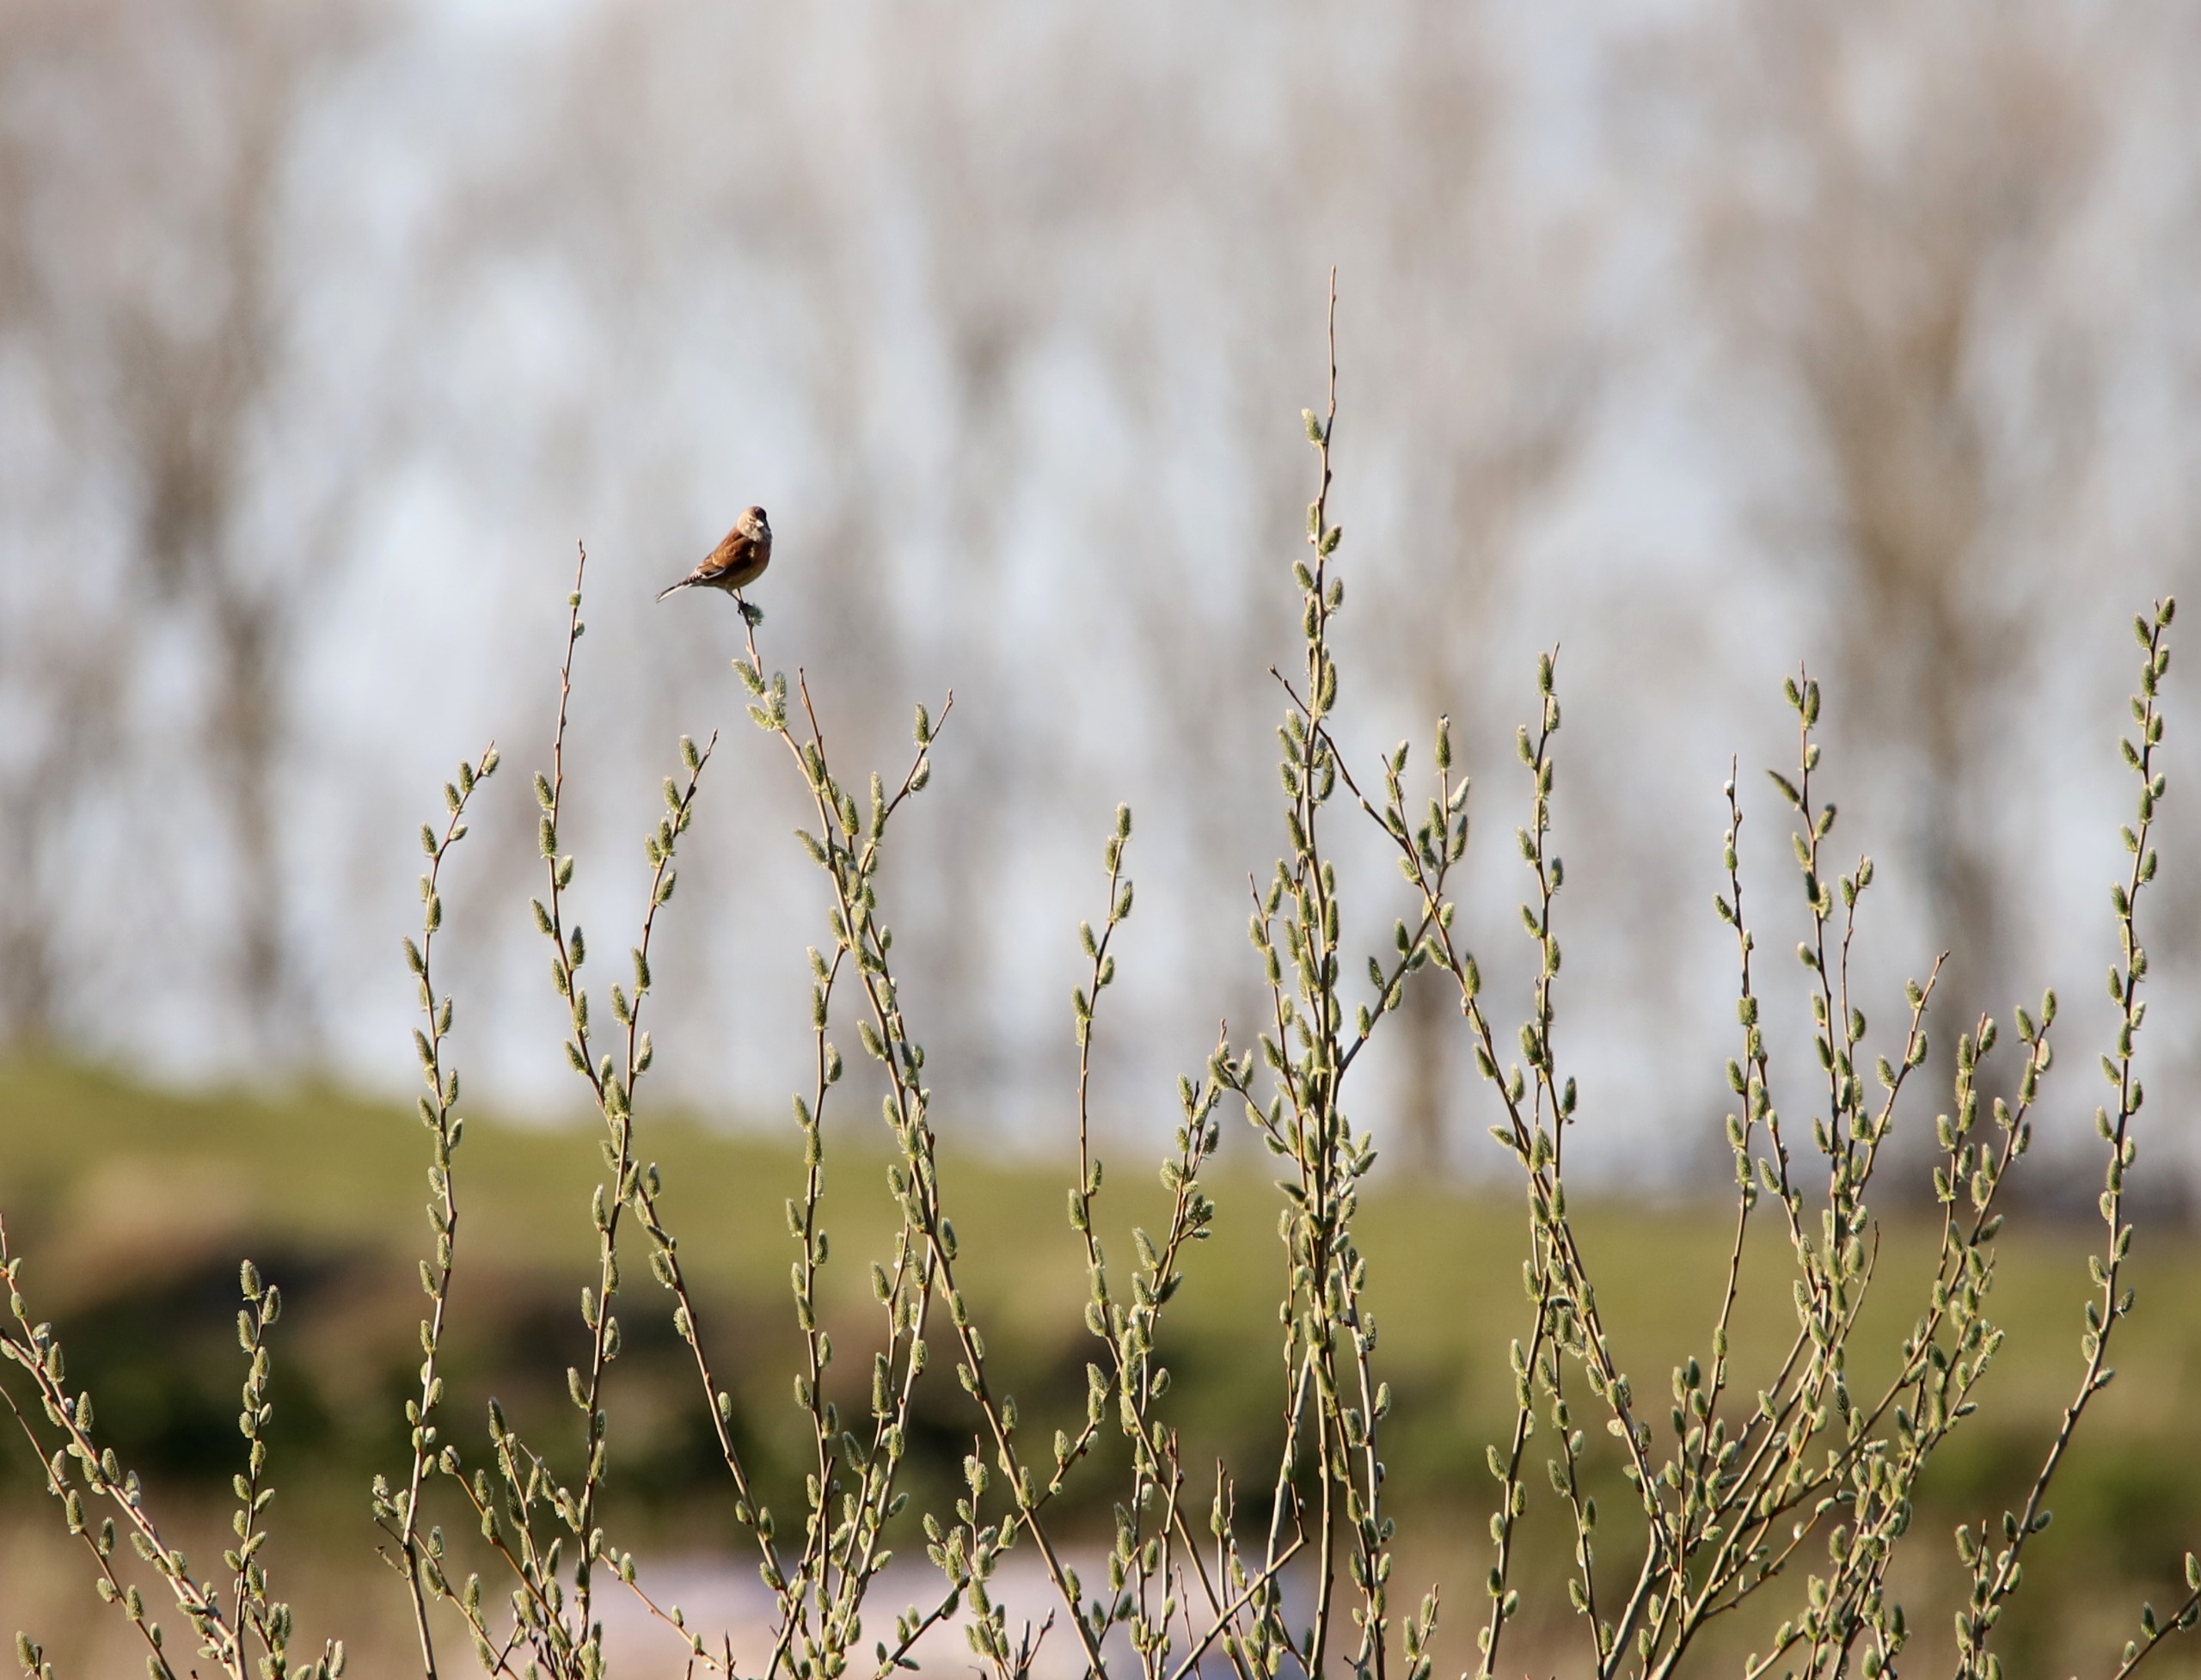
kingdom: Animalia
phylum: Chordata
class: Aves
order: Passeriformes
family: Fringillidae
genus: Linaria
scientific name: Linaria cannabina
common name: Tornirisk
